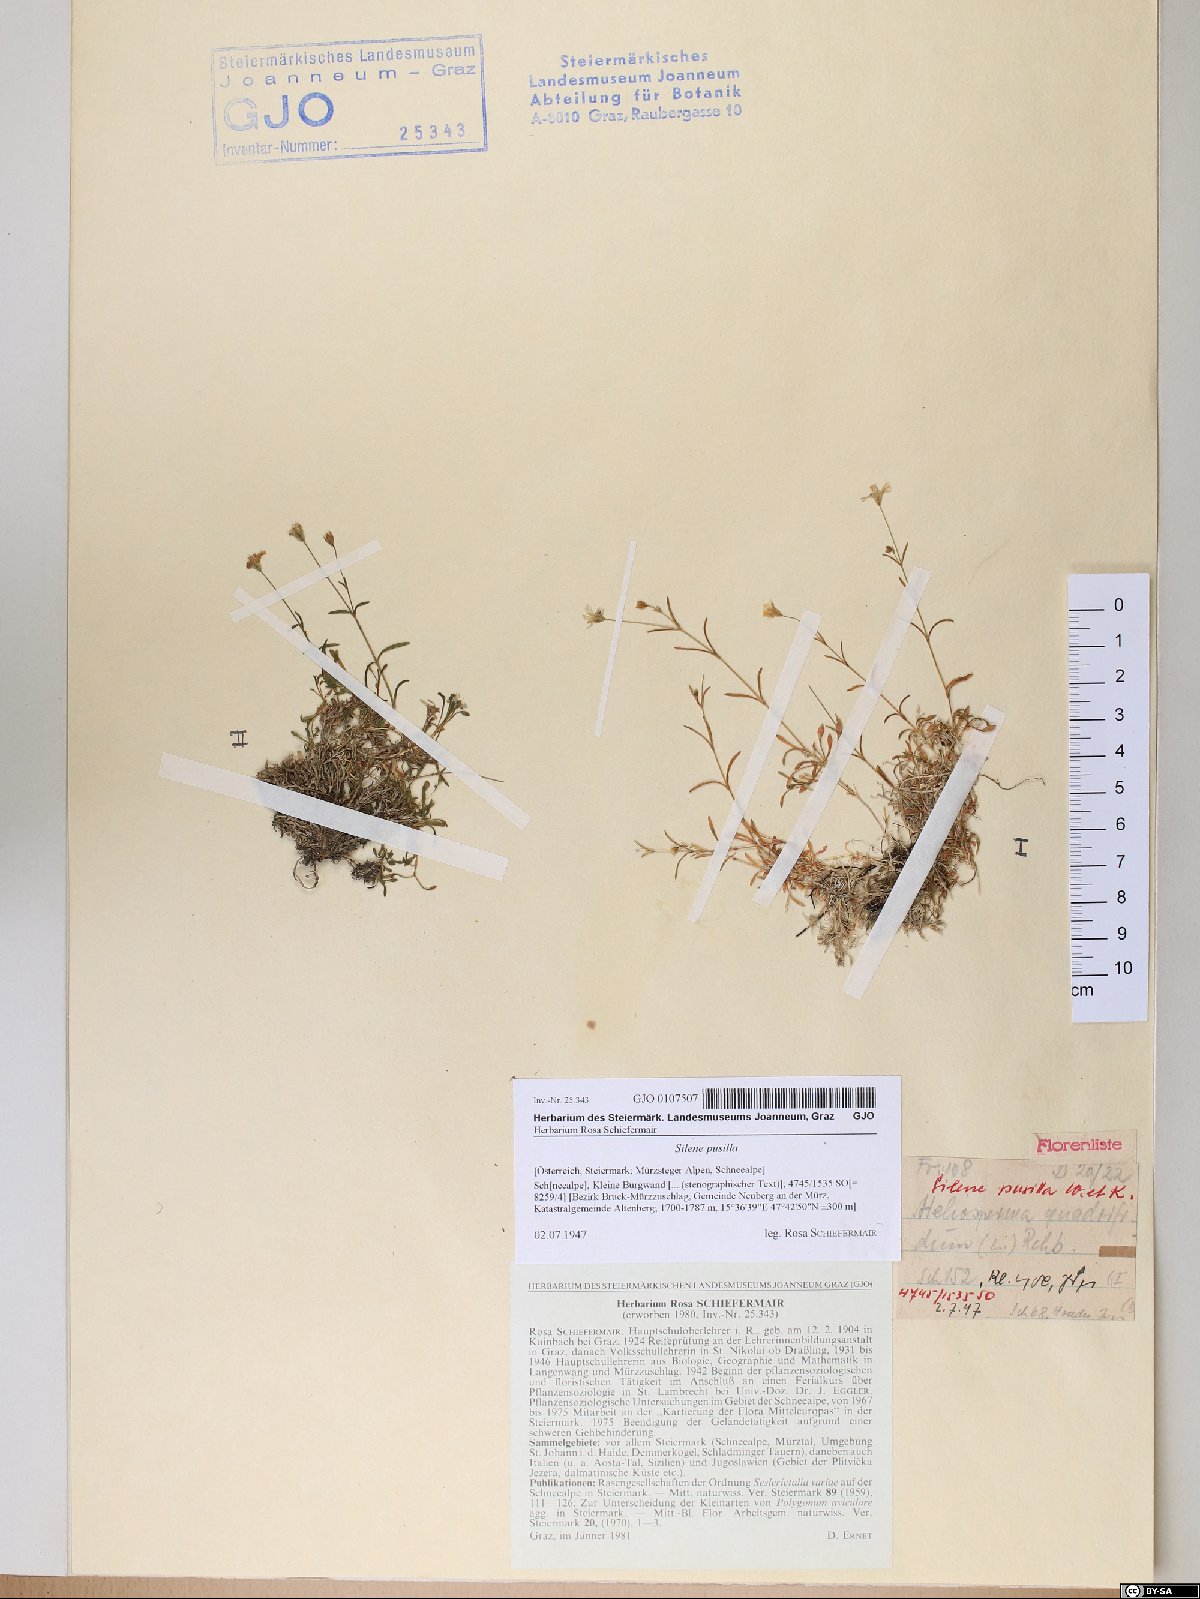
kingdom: Plantae
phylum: Tracheophyta
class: Magnoliopsida
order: Caryophyllales
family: Caryophyllaceae
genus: Heliosperma
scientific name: Heliosperma pusillum
